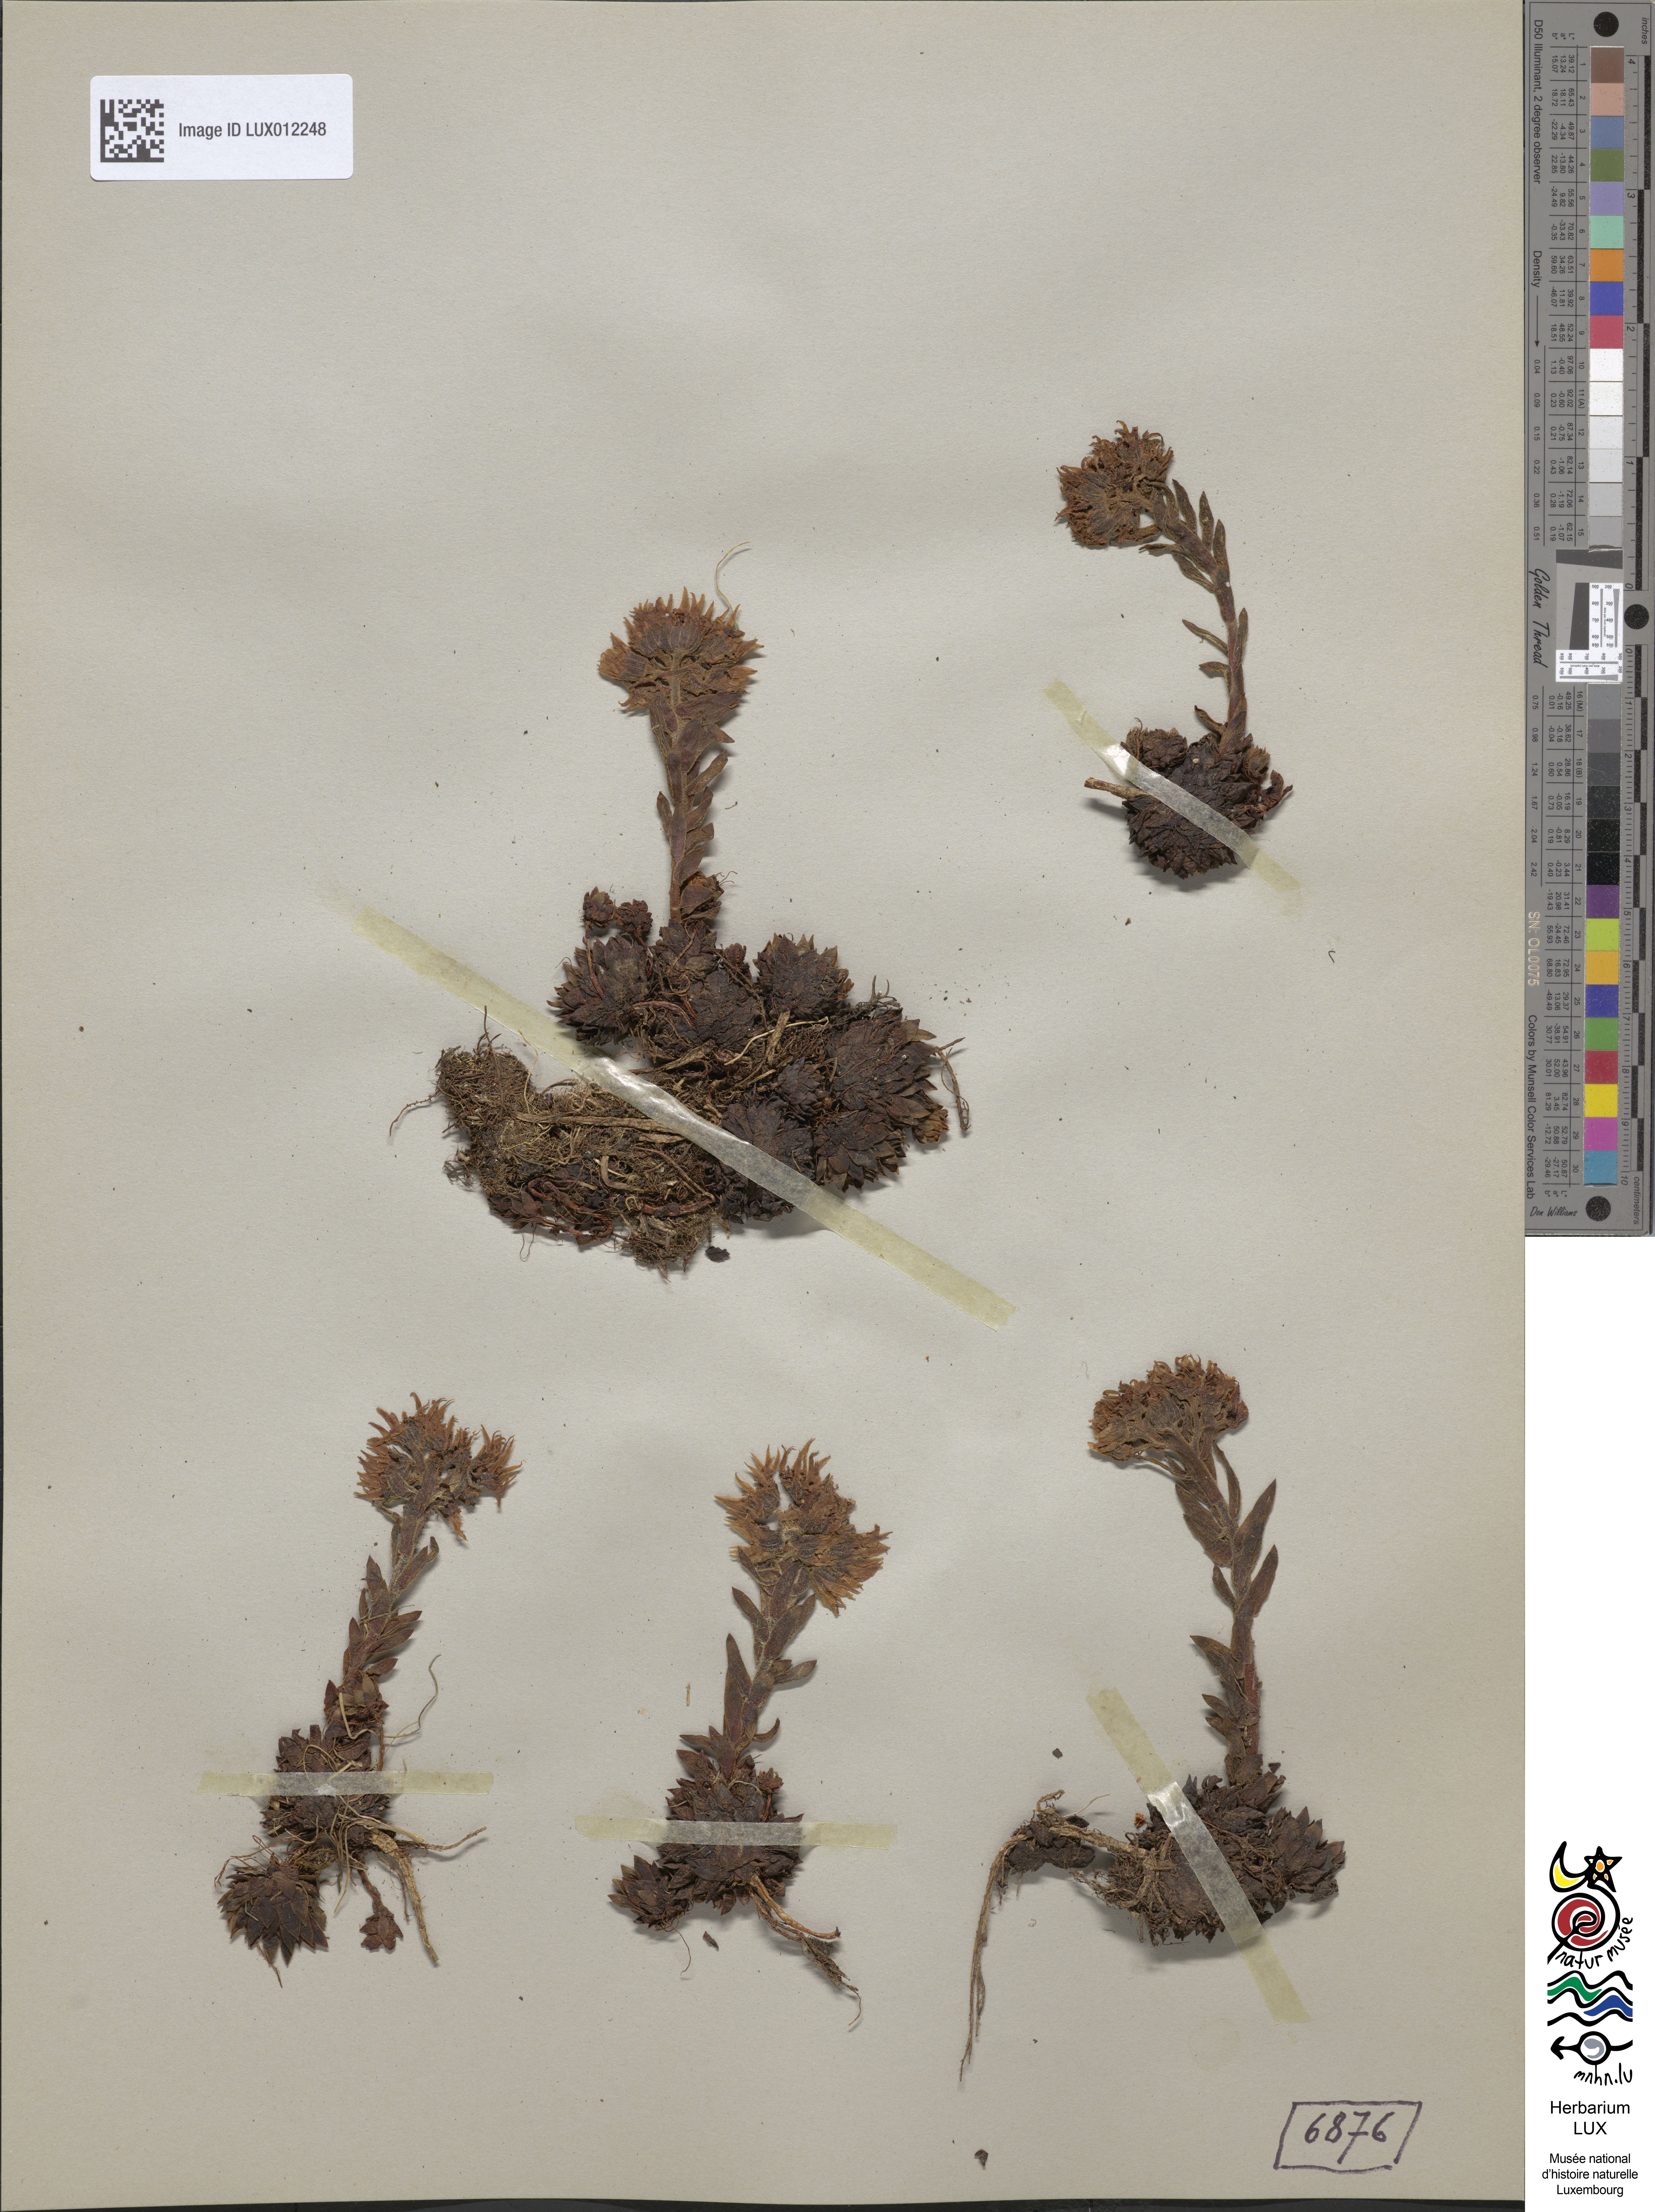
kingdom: Plantae
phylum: Tracheophyta
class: Magnoliopsida
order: Saxifragales
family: Crassulaceae
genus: Sempervivum
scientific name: Sempervivum montanum
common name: Mountain house-leek
